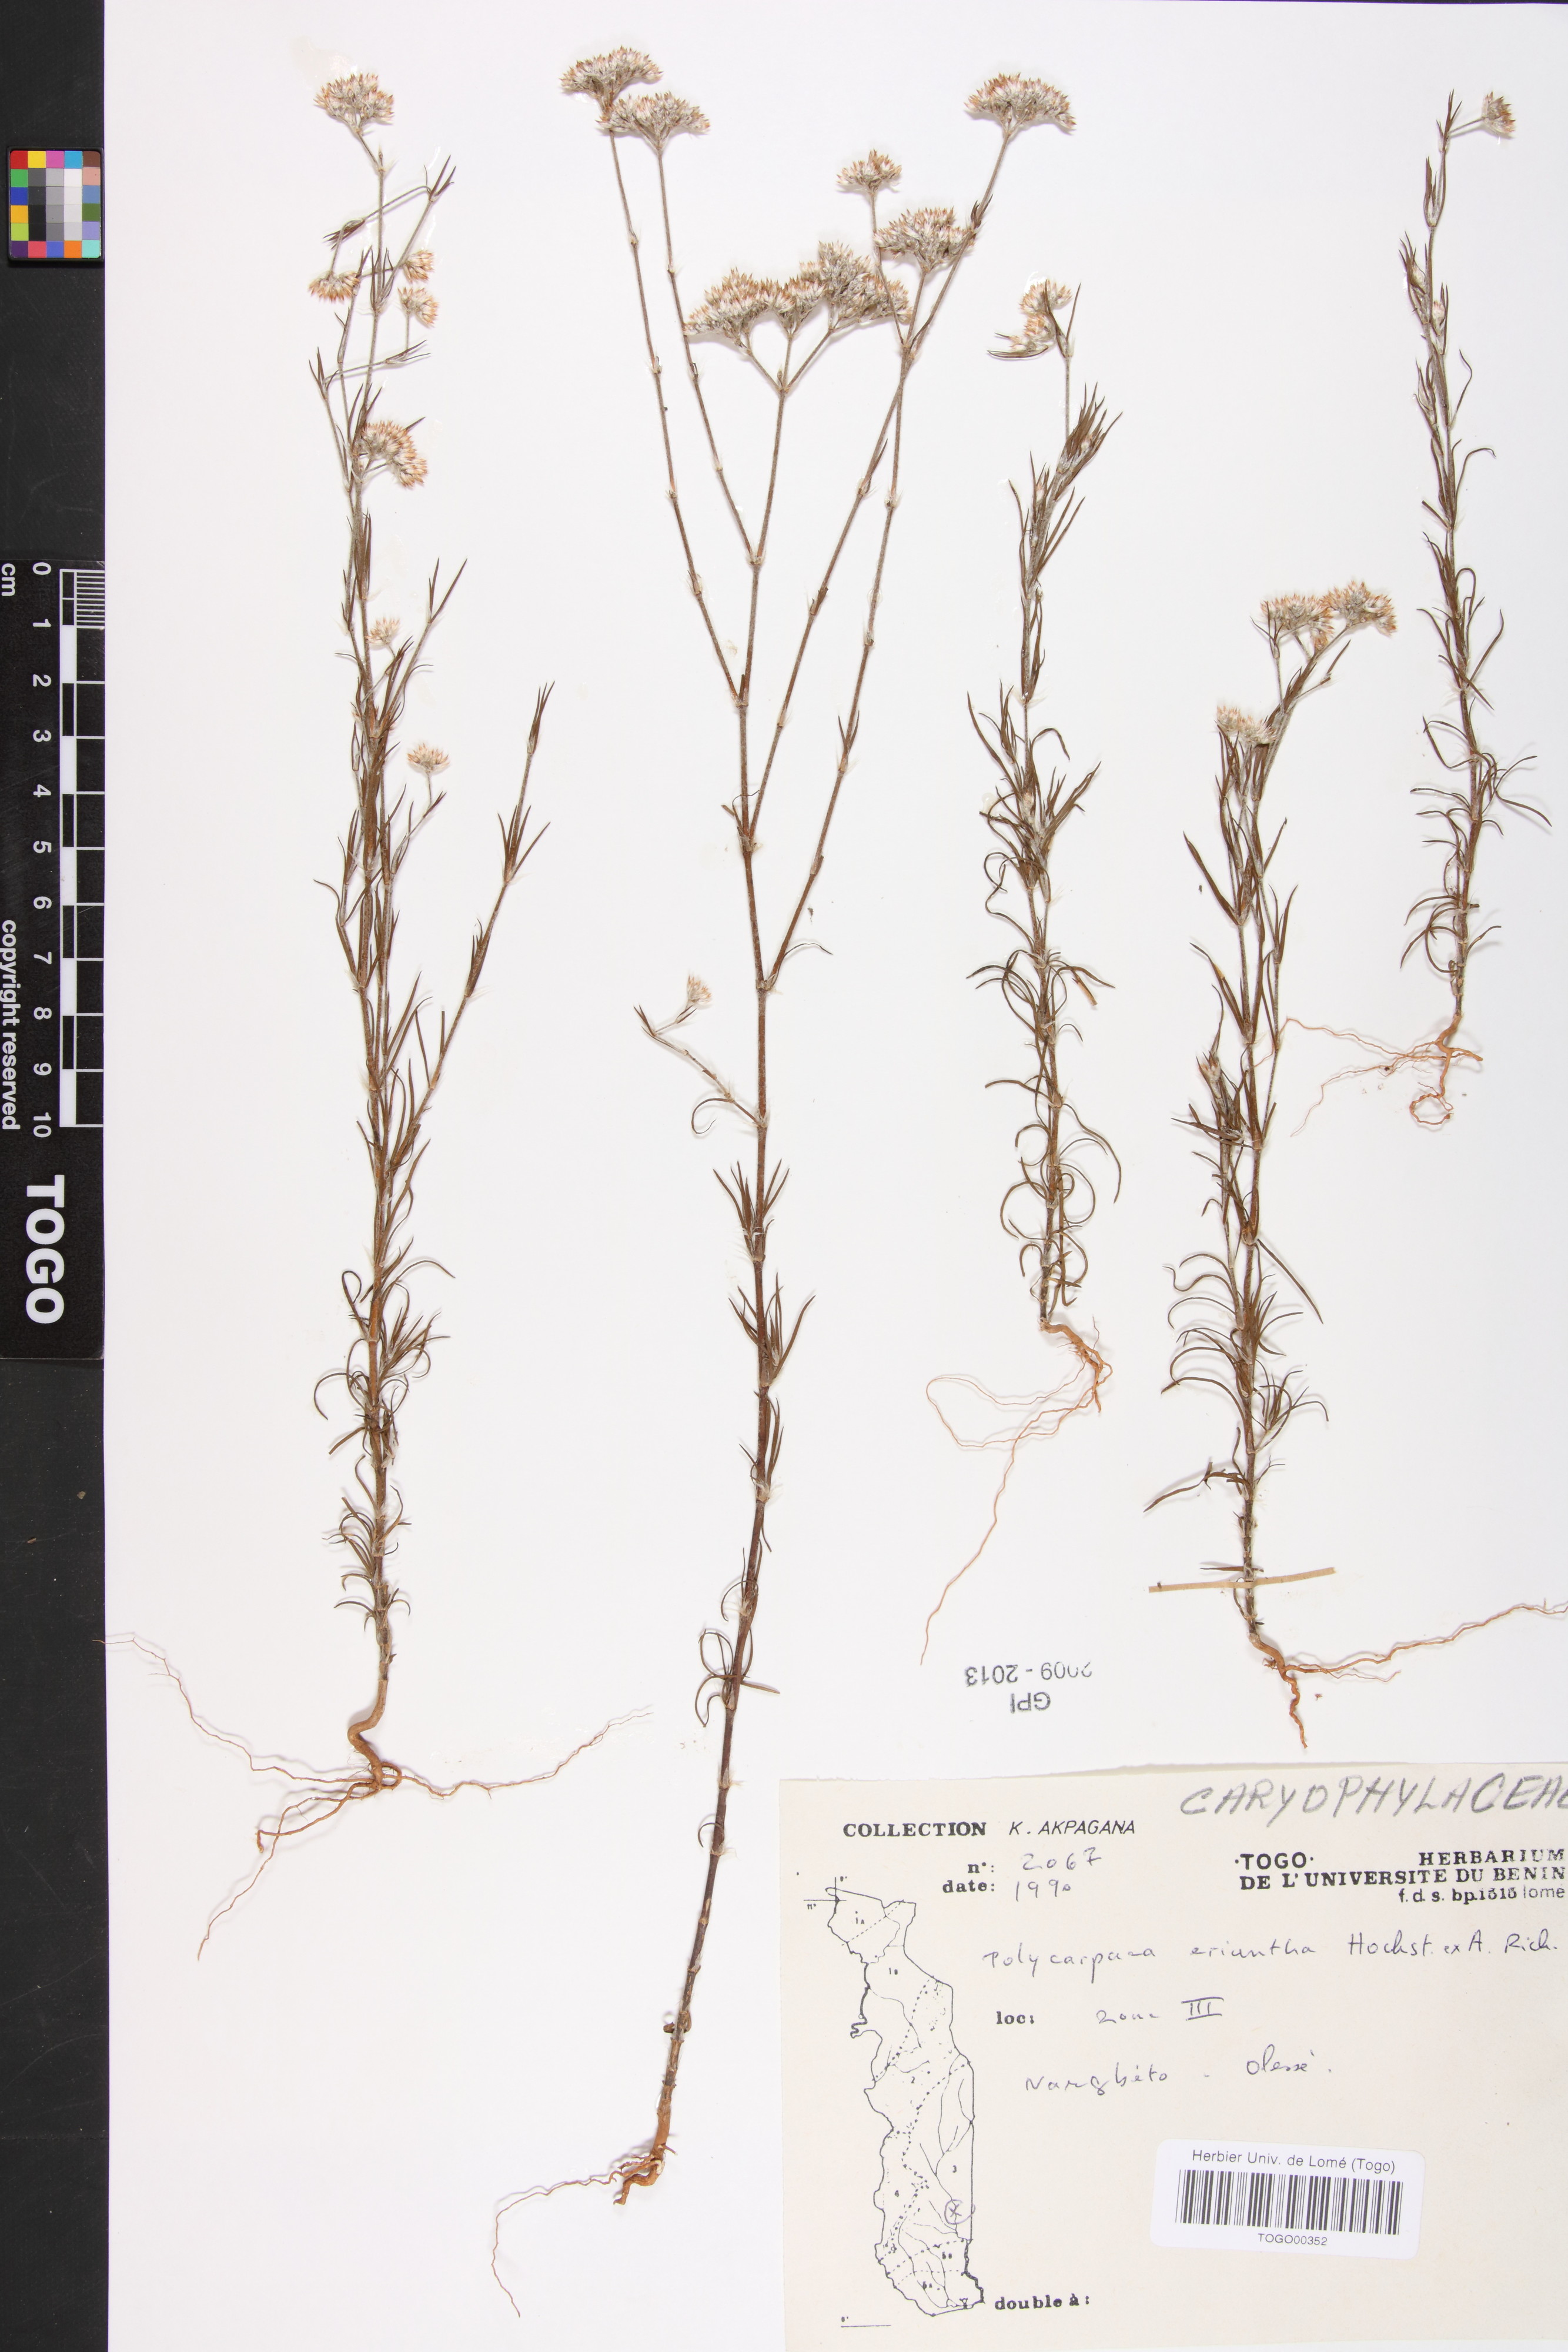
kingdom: Plantae
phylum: Tracheophyta
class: Magnoliopsida
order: Caryophyllales
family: Caryophyllaceae
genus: Polycarpaea
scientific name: Polycarpaea eriantha
